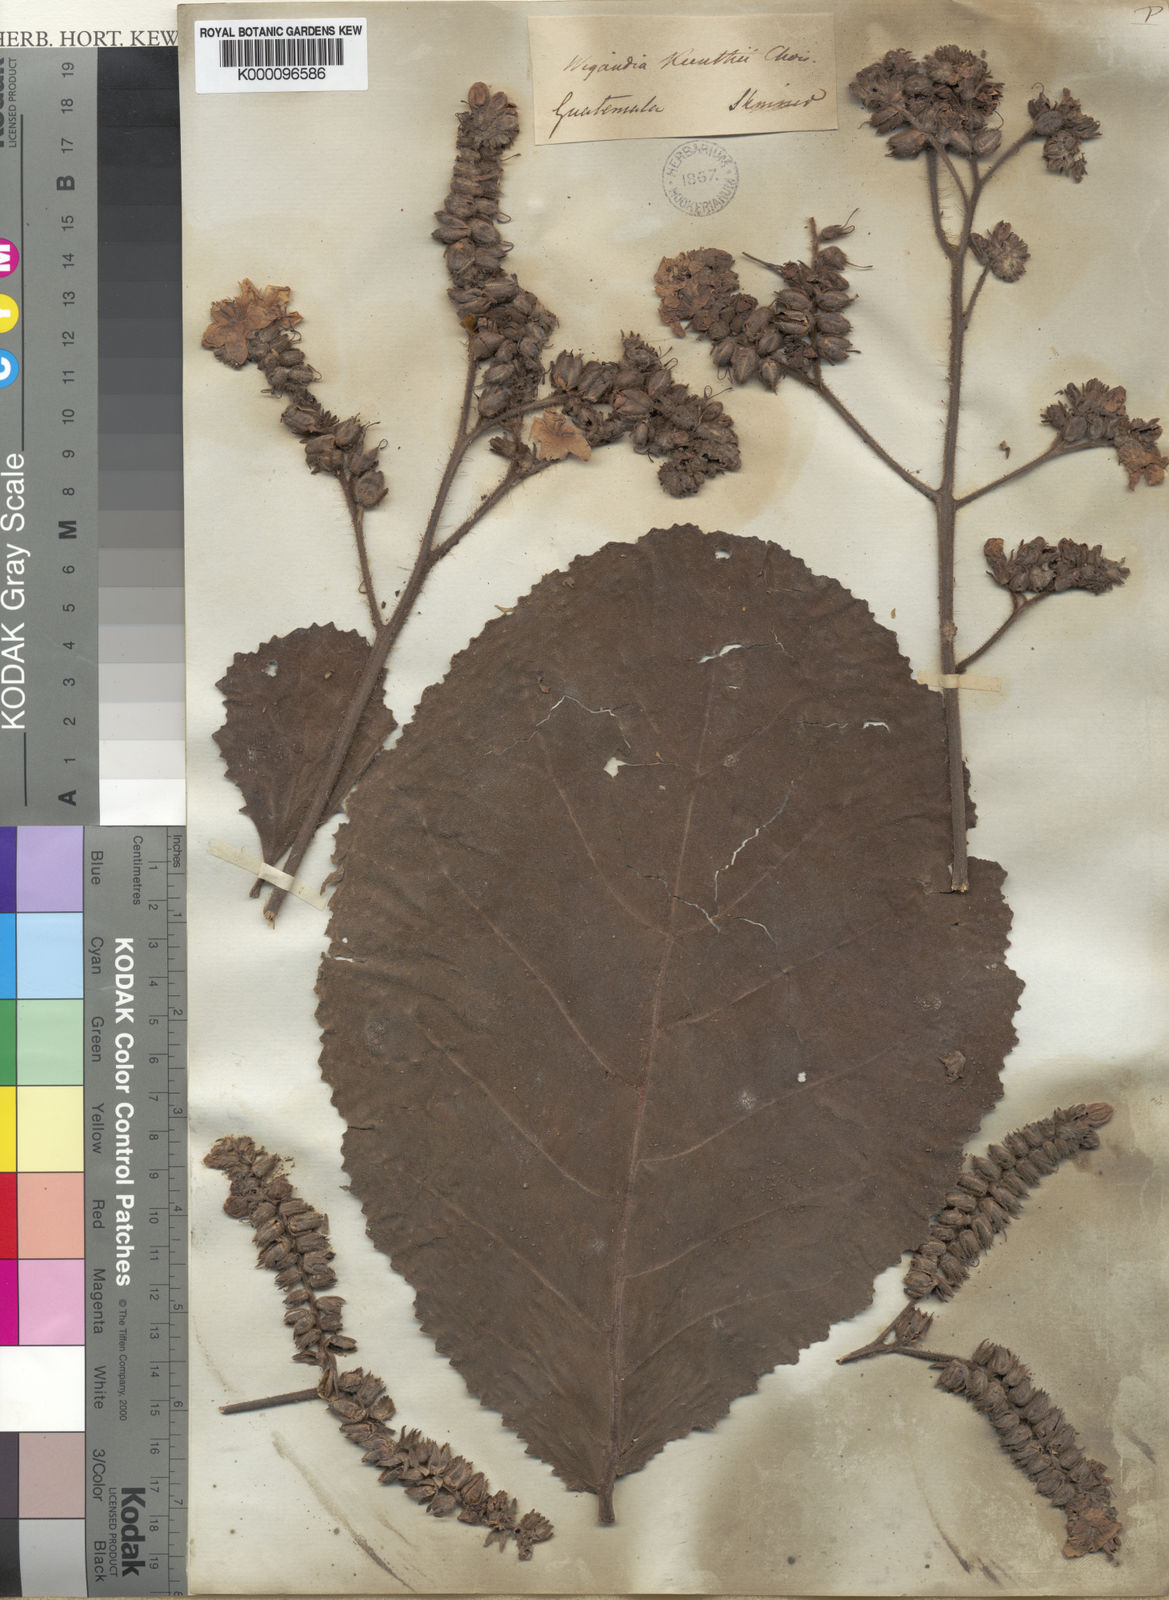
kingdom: Plantae
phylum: Tracheophyta
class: Magnoliopsida
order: Boraginales
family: Namaceae
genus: Wigandia
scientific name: Wigandia
